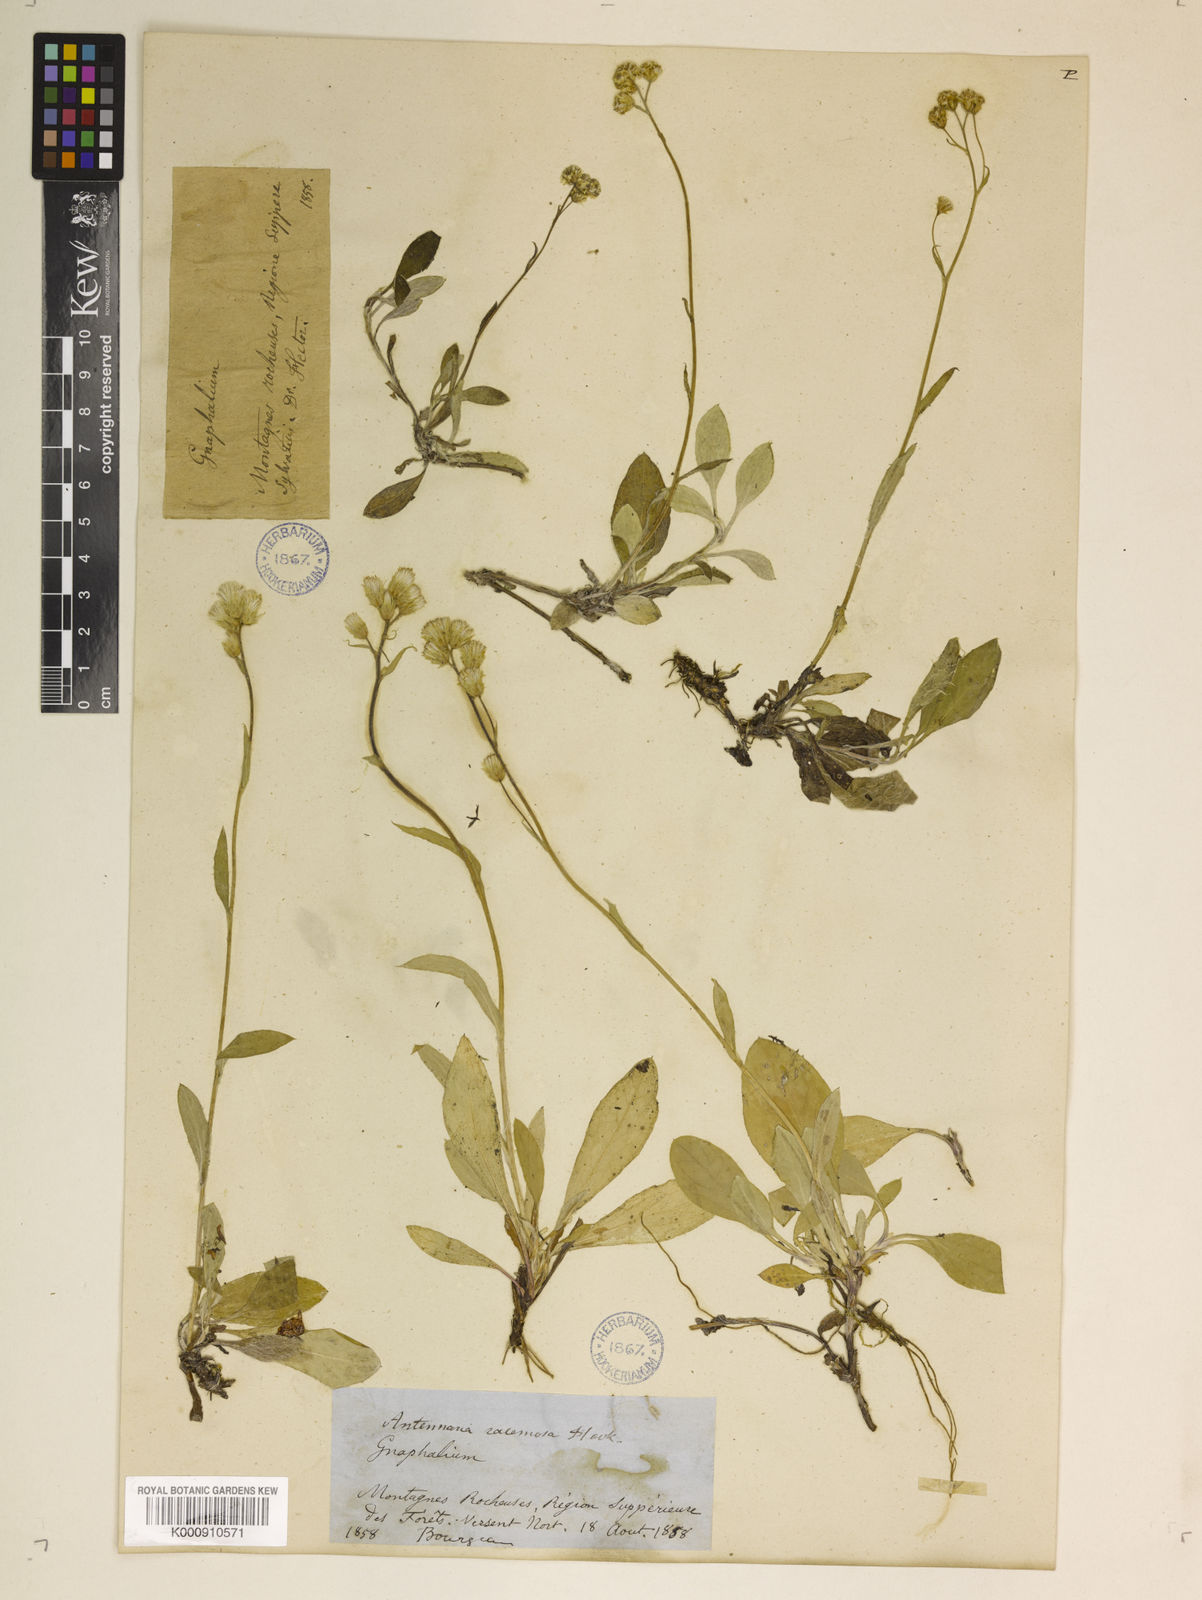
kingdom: Plantae
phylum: Tracheophyta
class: Magnoliopsida
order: Asterales
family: Asteraceae
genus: Antennaria
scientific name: Antennaria racemosa
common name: Racemose pussytoes
